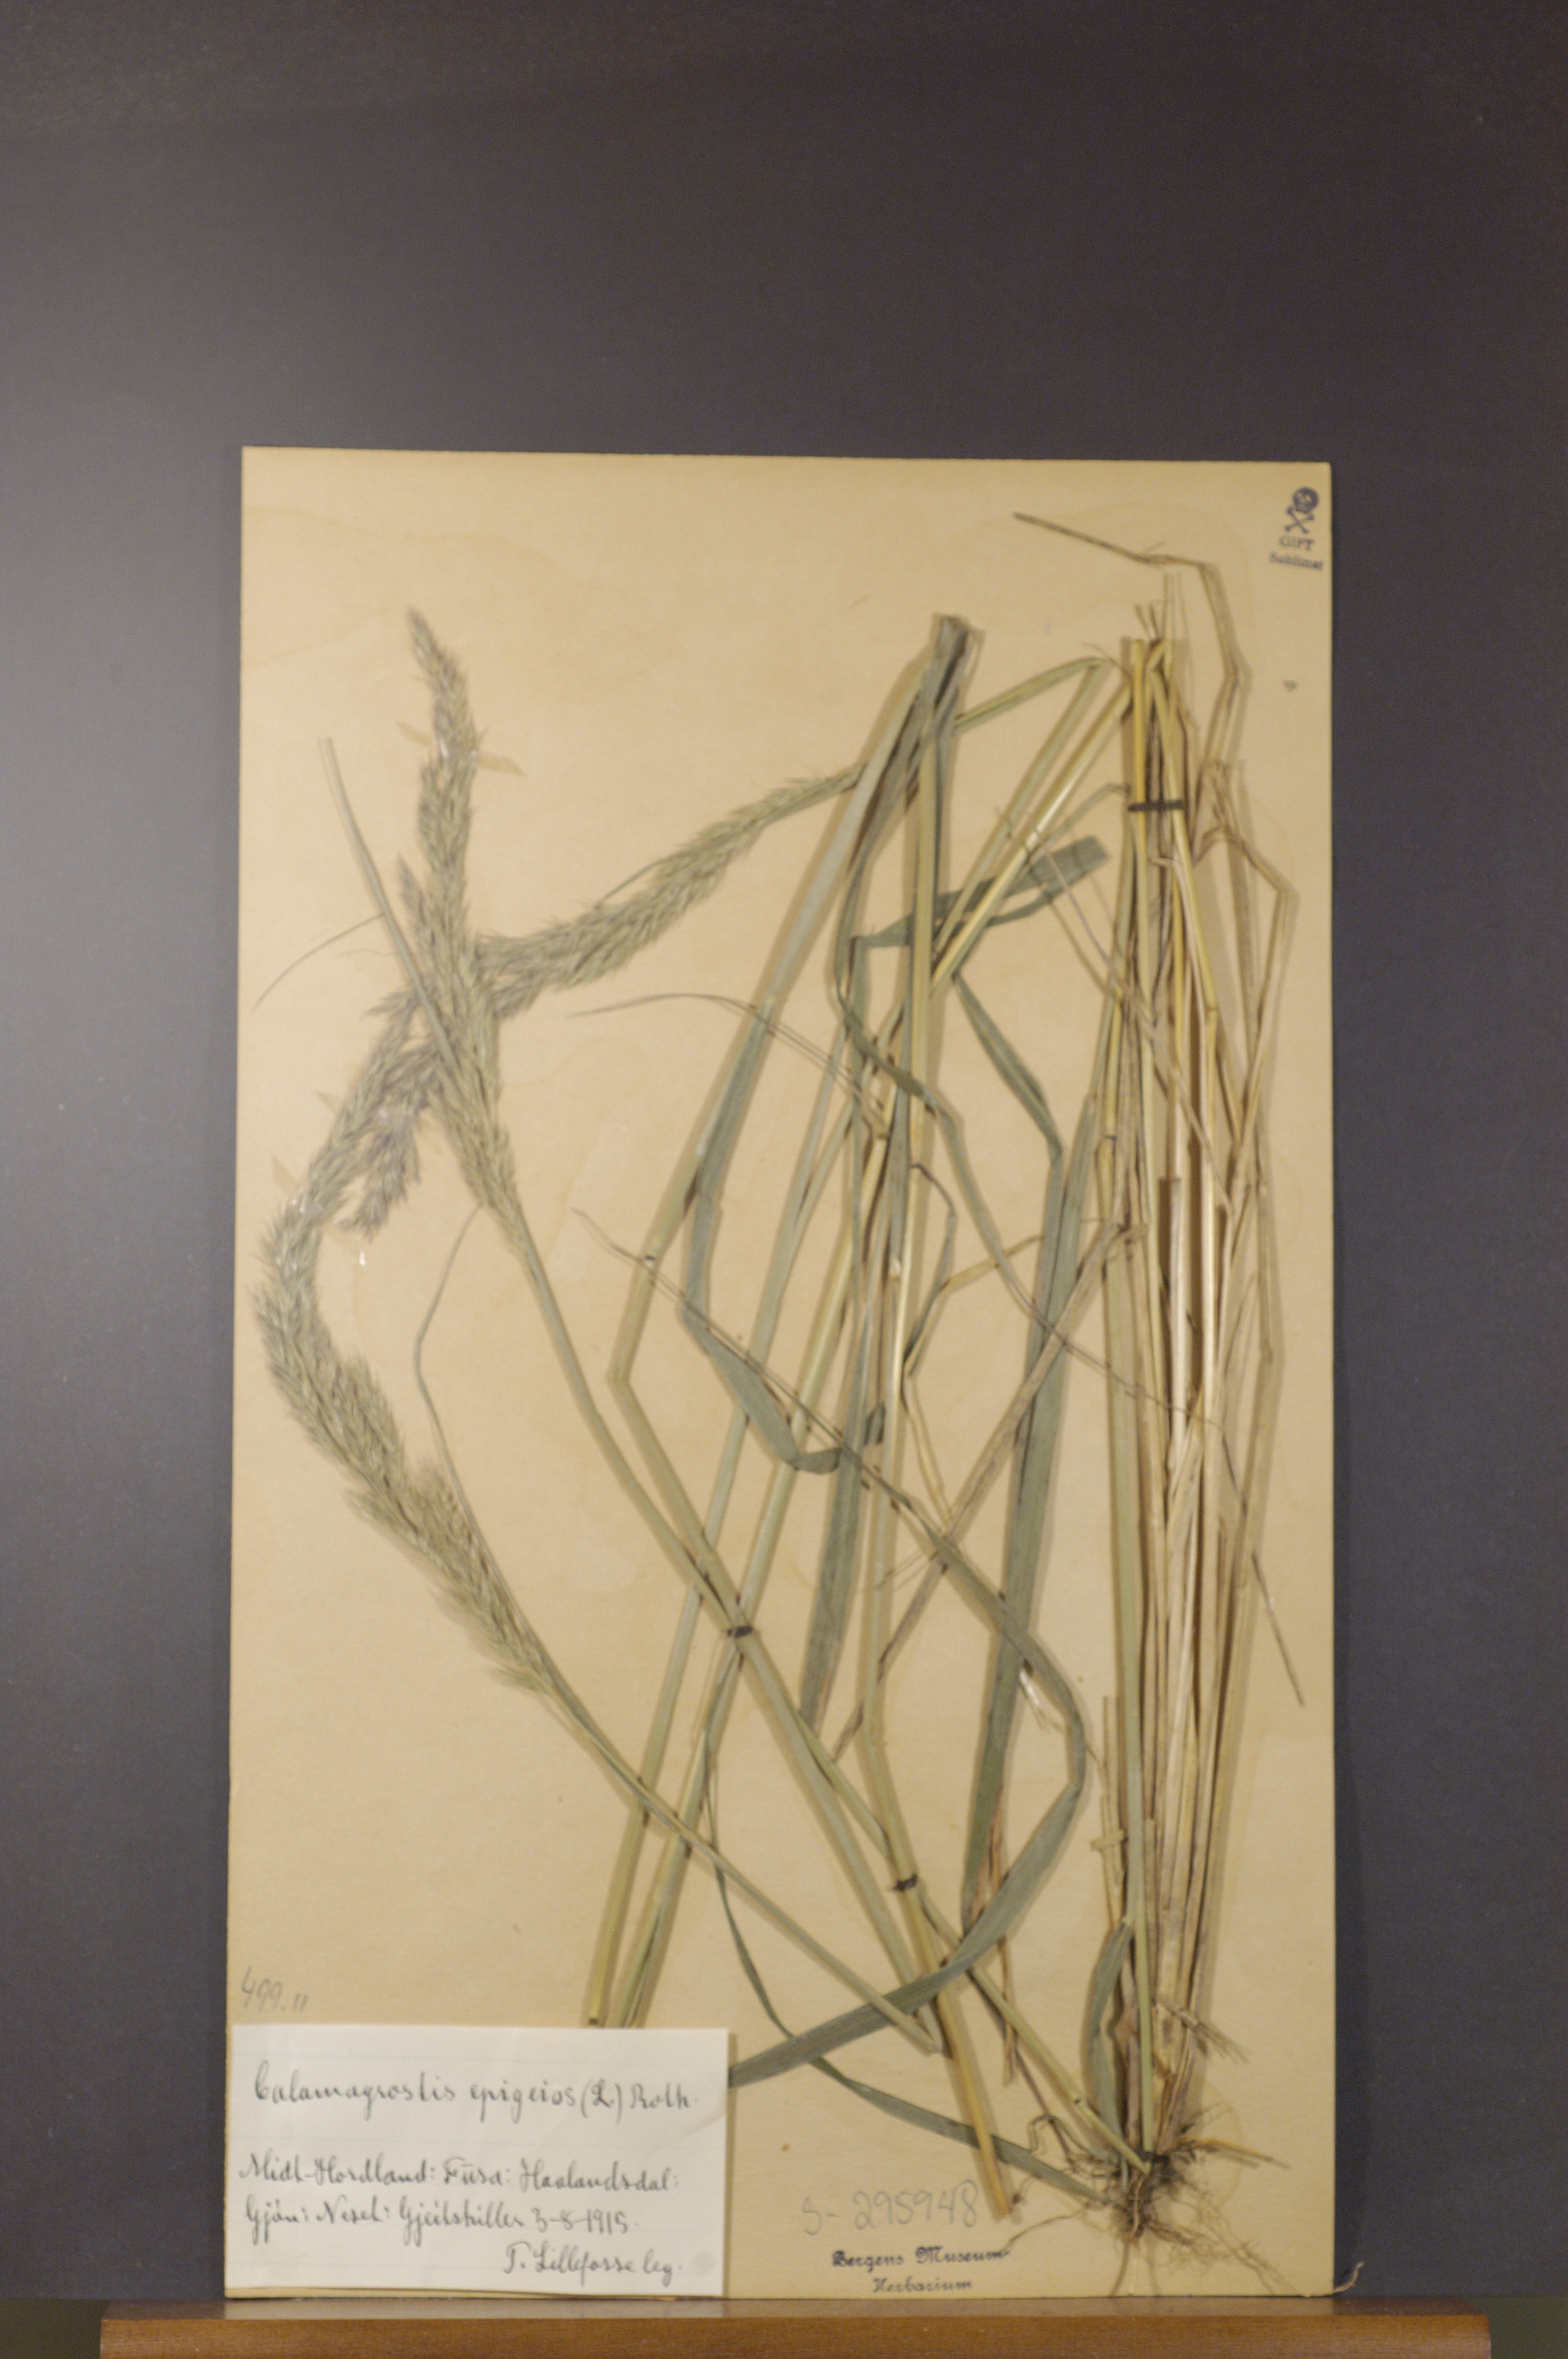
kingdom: Plantae
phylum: Tracheophyta
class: Liliopsida
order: Poales
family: Poaceae
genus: Calamagrostis
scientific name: Calamagrostis epigejos
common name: Wood small-reed
